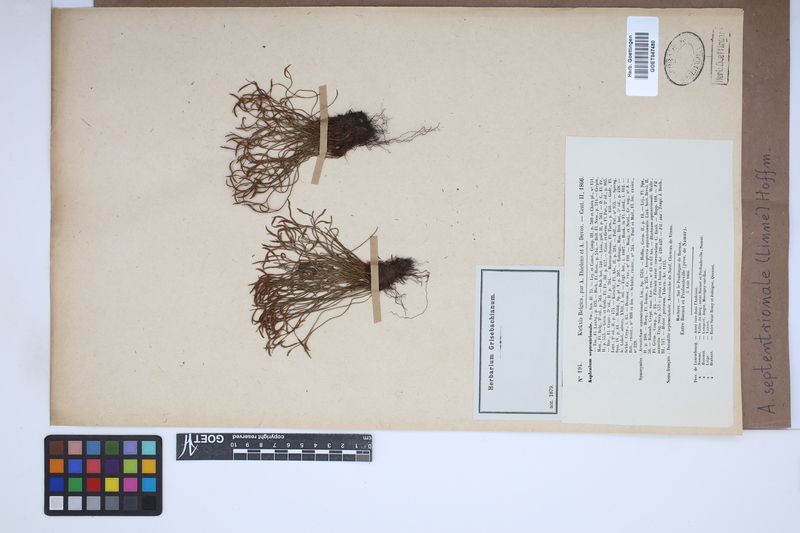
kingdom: Plantae
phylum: Tracheophyta
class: Polypodiopsida
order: Polypodiales
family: Aspleniaceae
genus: Asplenium
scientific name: Asplenium septentrionale
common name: Forked spleenwort
